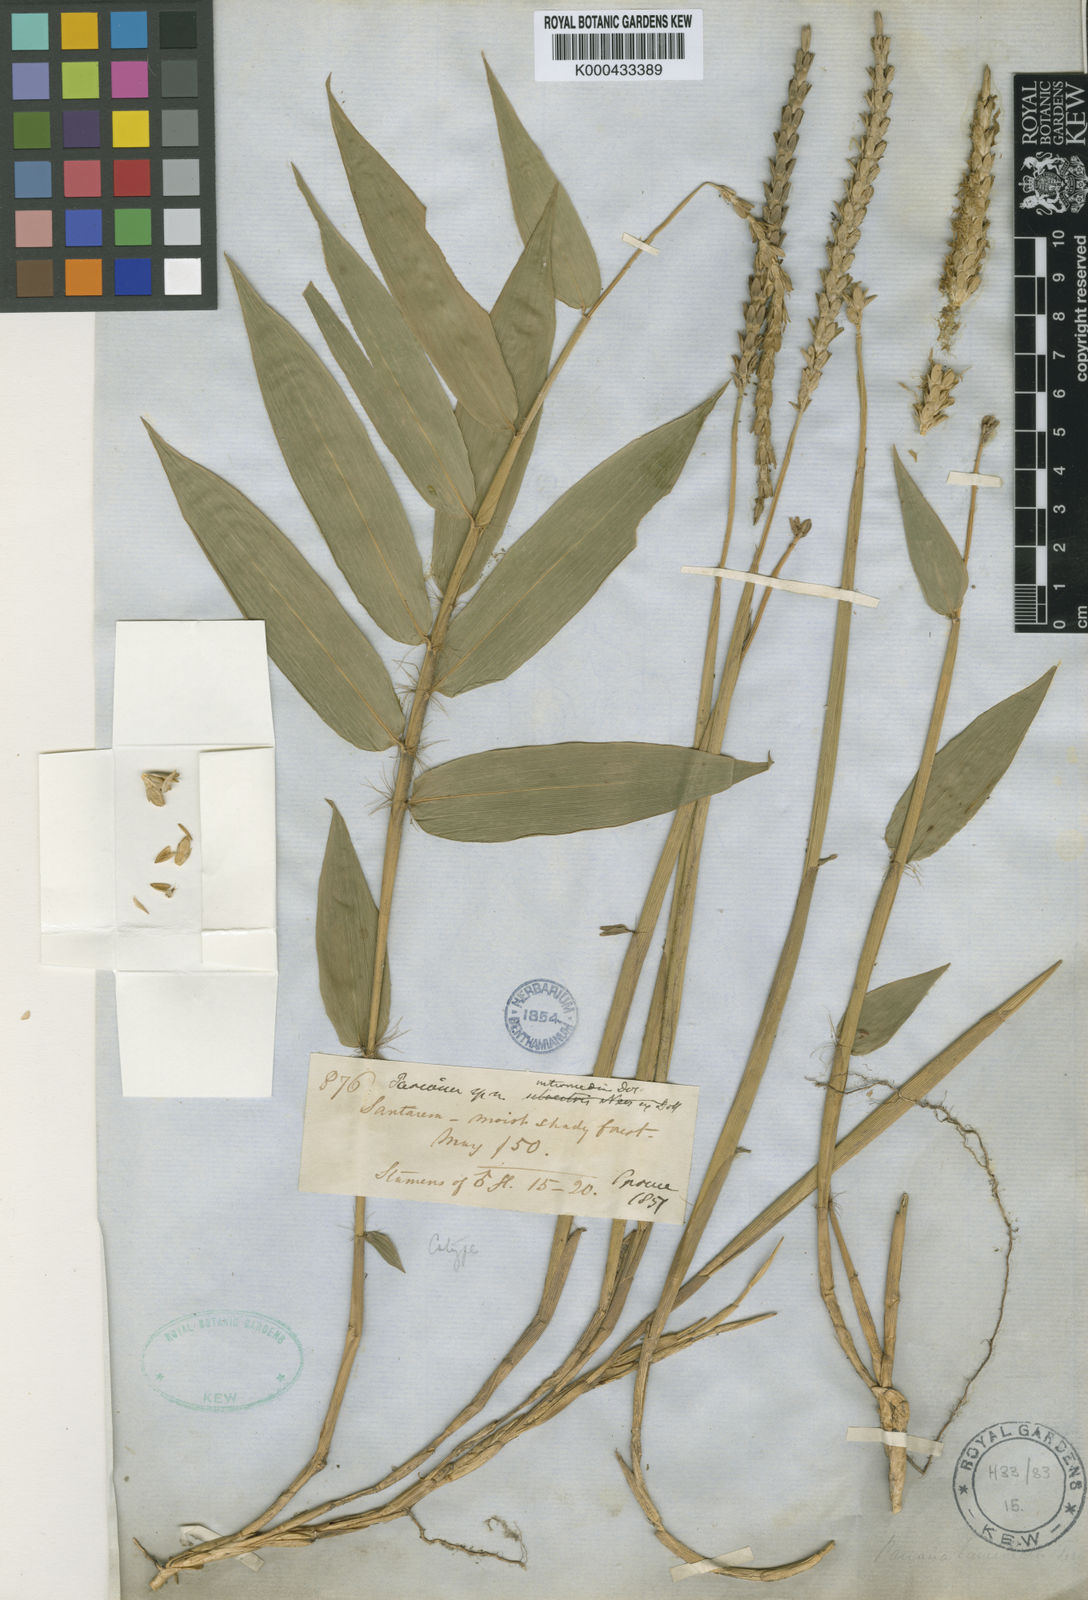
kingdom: Plantae
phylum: Tracheophyta
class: Liliopsida
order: Poales
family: Poaceae
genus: Pariana
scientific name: Pariana
